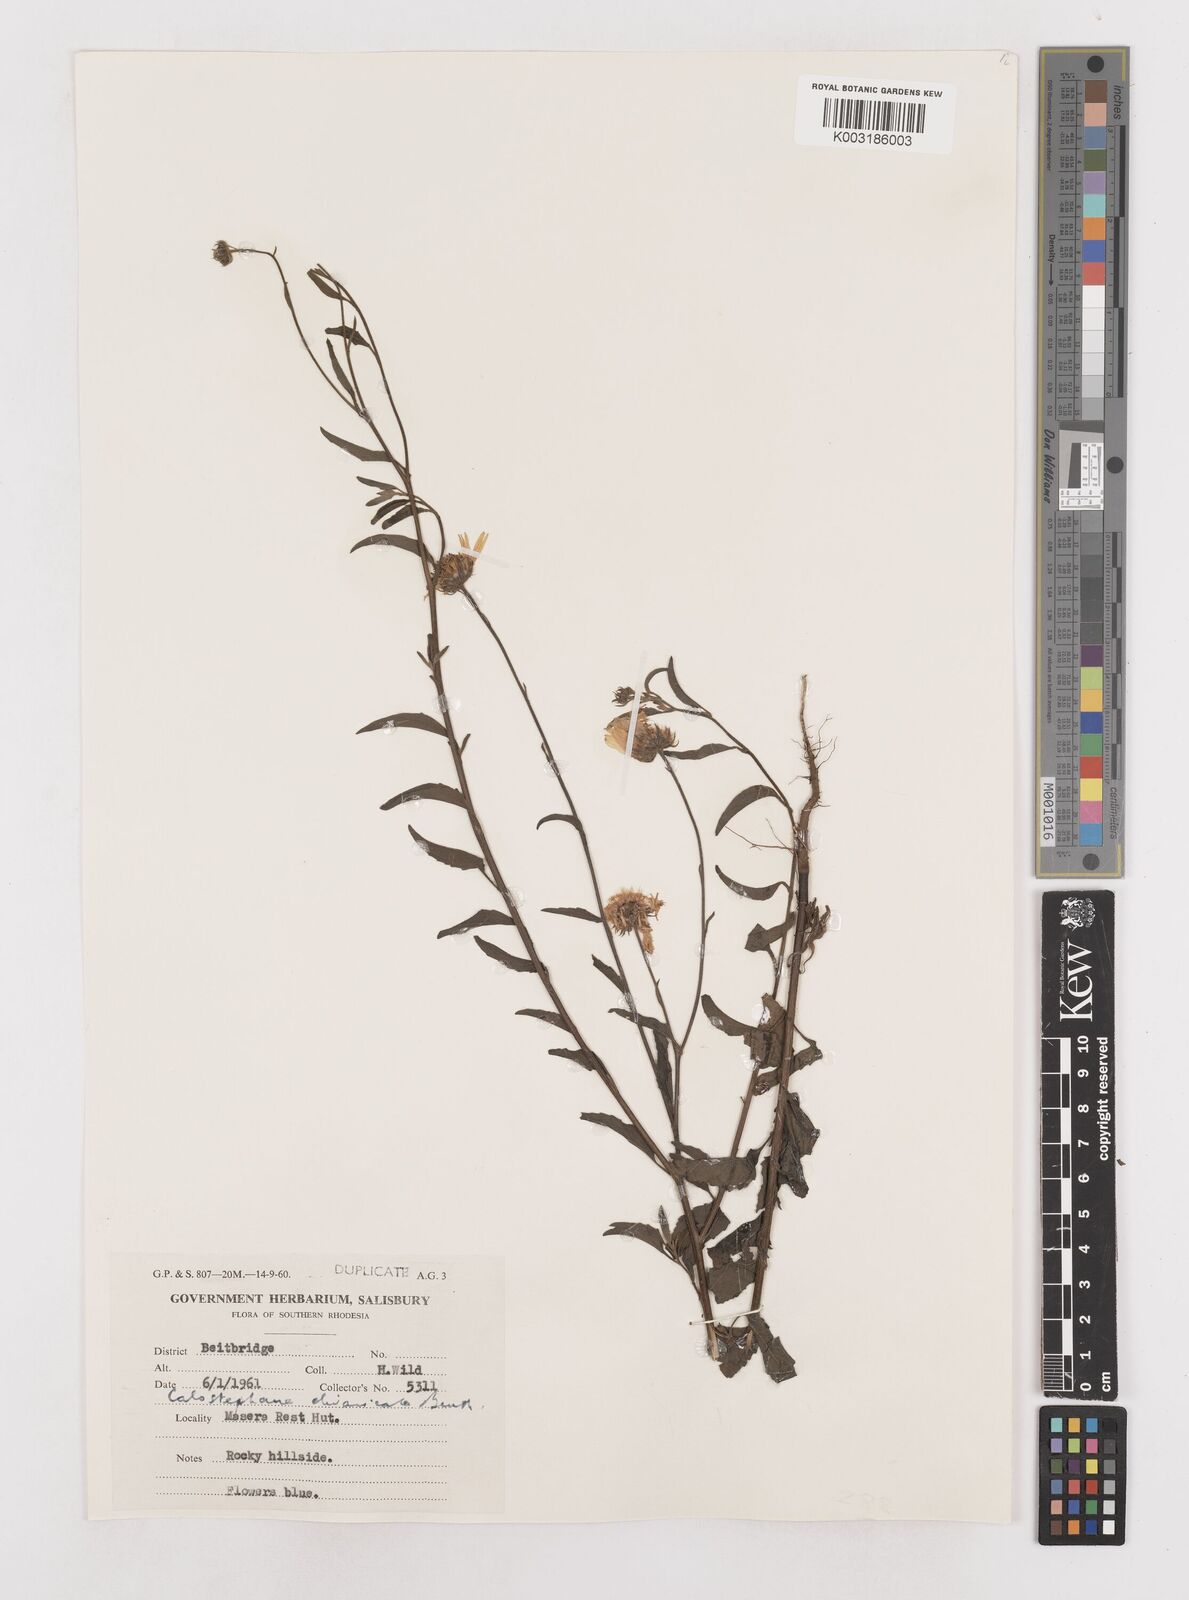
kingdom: Plantae
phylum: Tracheophyta
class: Magnoliopsida
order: Asterales
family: Asteraceae
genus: Calostephane
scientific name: Calostephane divaricata
